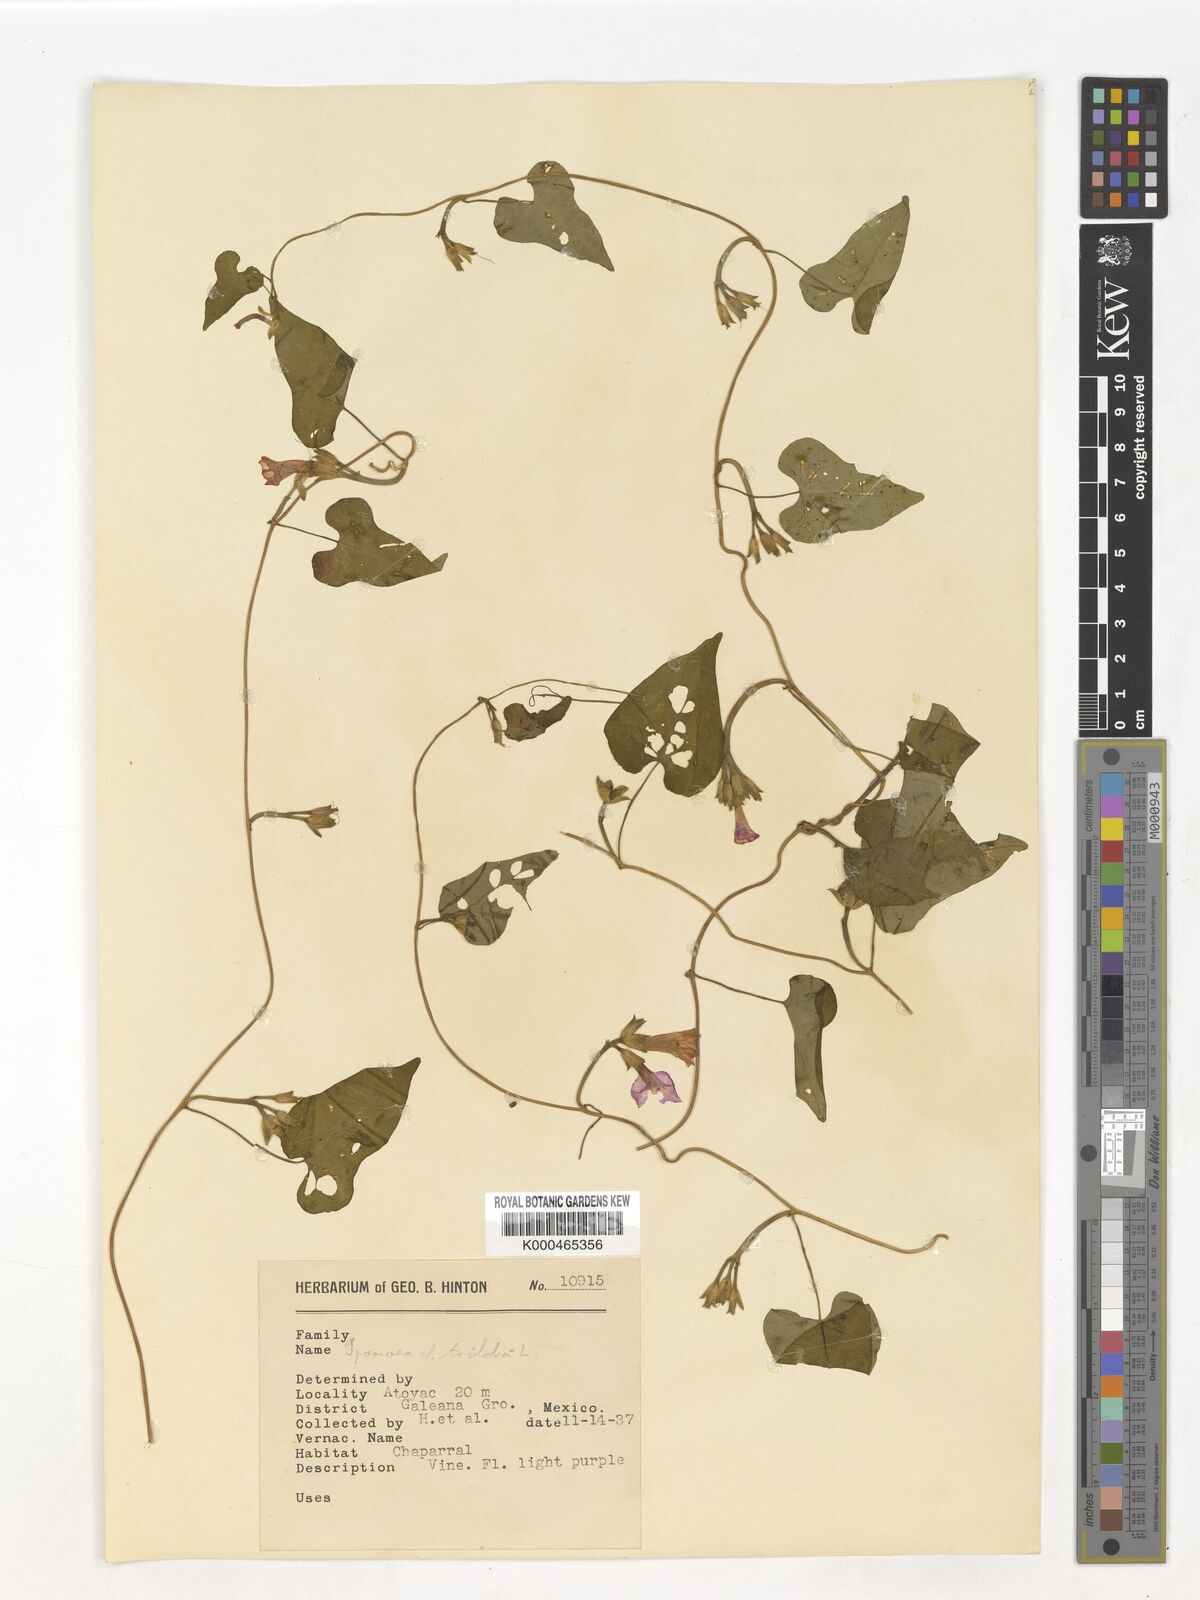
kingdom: Plantae
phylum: Tracheophyta
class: Magnoliopsida
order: Solanales
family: Convolvulaceae
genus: Ipomoea
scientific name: Ipomoea trifida
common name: Cotton morningglory
